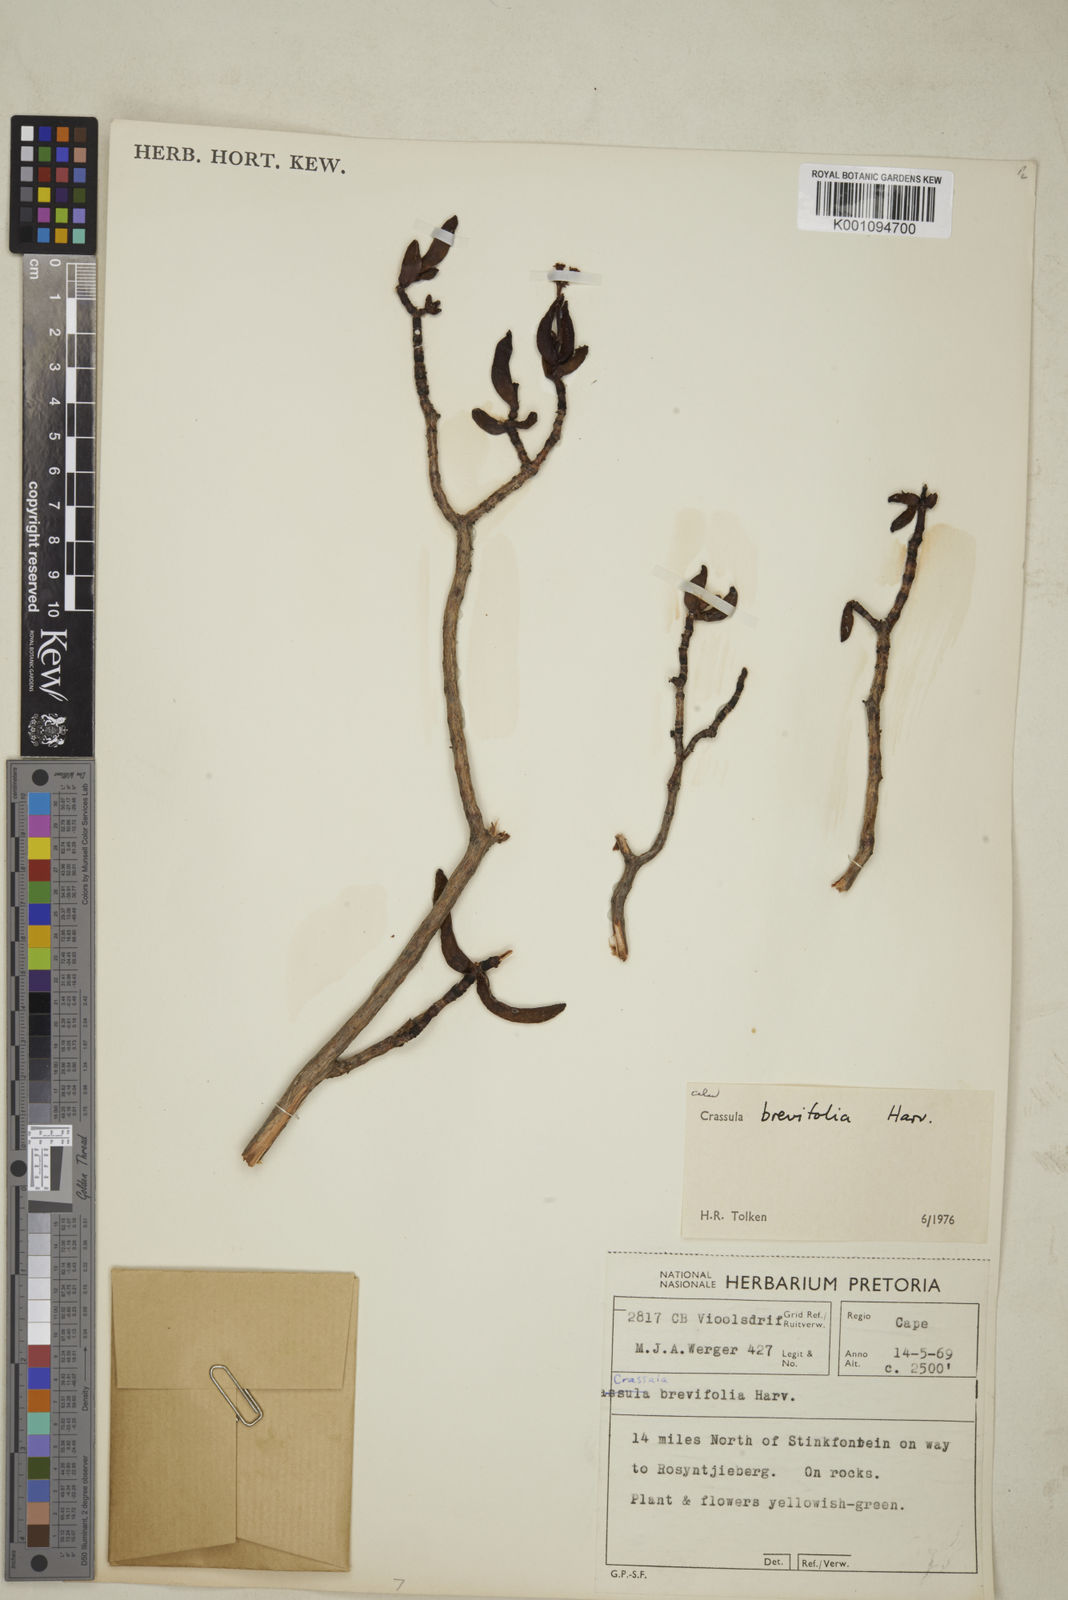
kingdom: Plantae
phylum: Tracheophyta
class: Magnoliopsida
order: Saxifragales
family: Crassulaceae
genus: Crassula
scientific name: Crassula brevifolia
